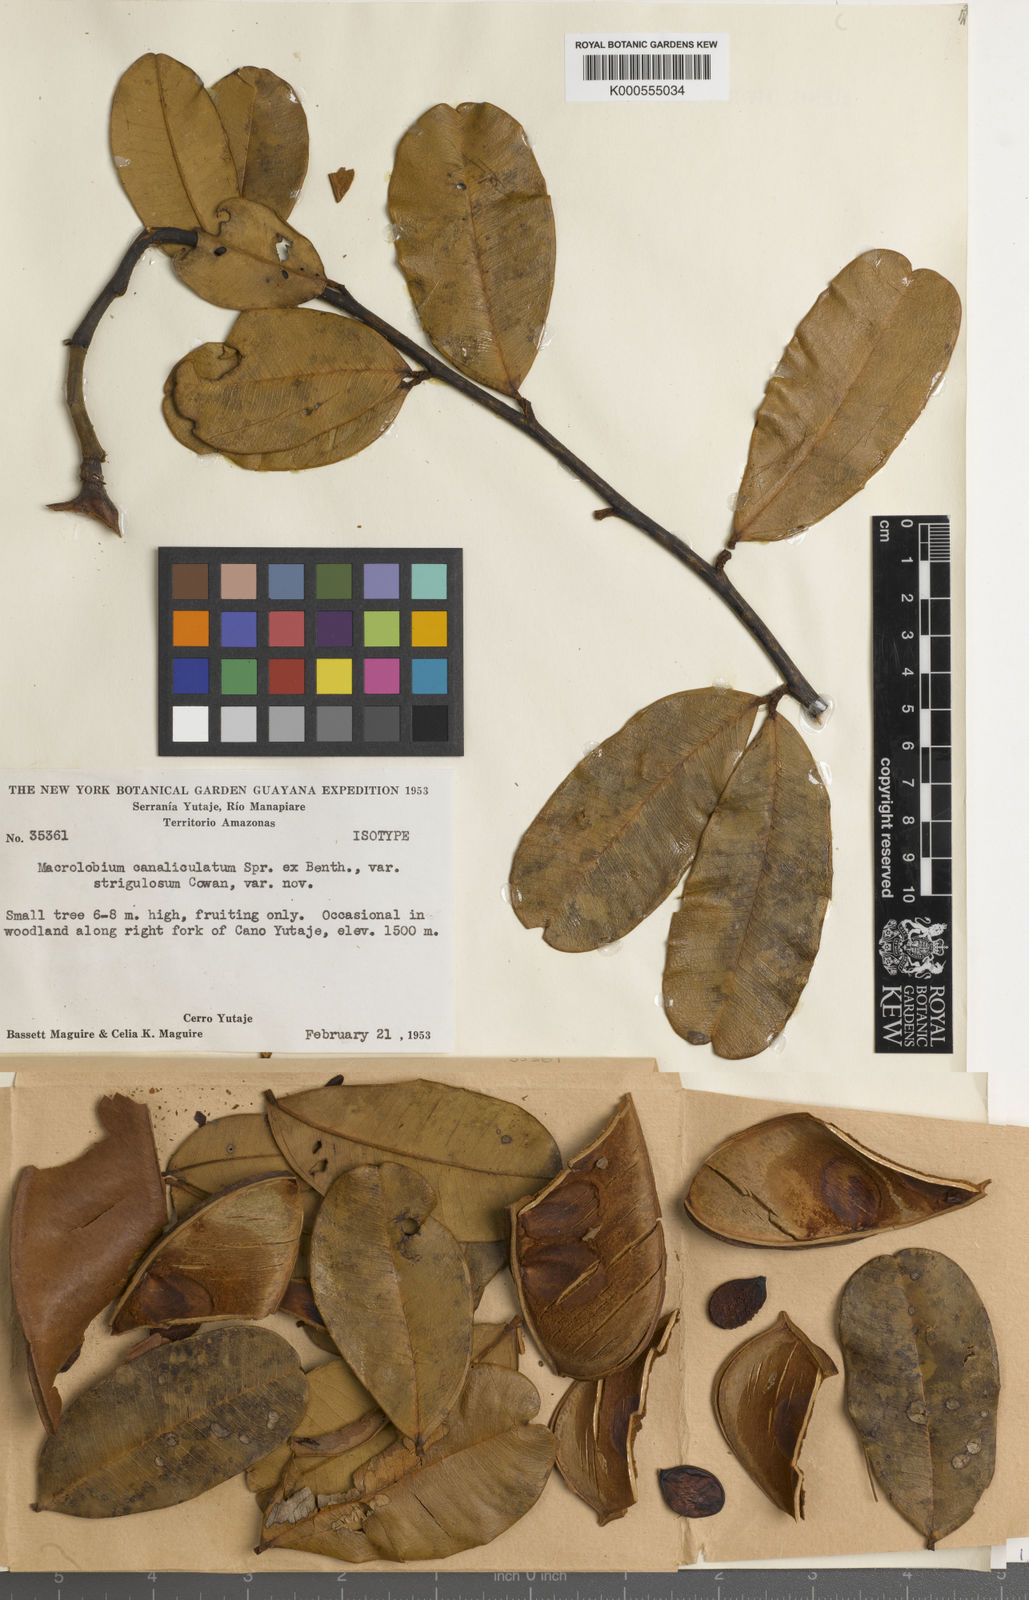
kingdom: Plantae
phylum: Tracheophyta
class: Magnoliopsida
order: Fabales
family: Fabaceae
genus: Macrolobium
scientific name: Macrolobium canaliculatum
